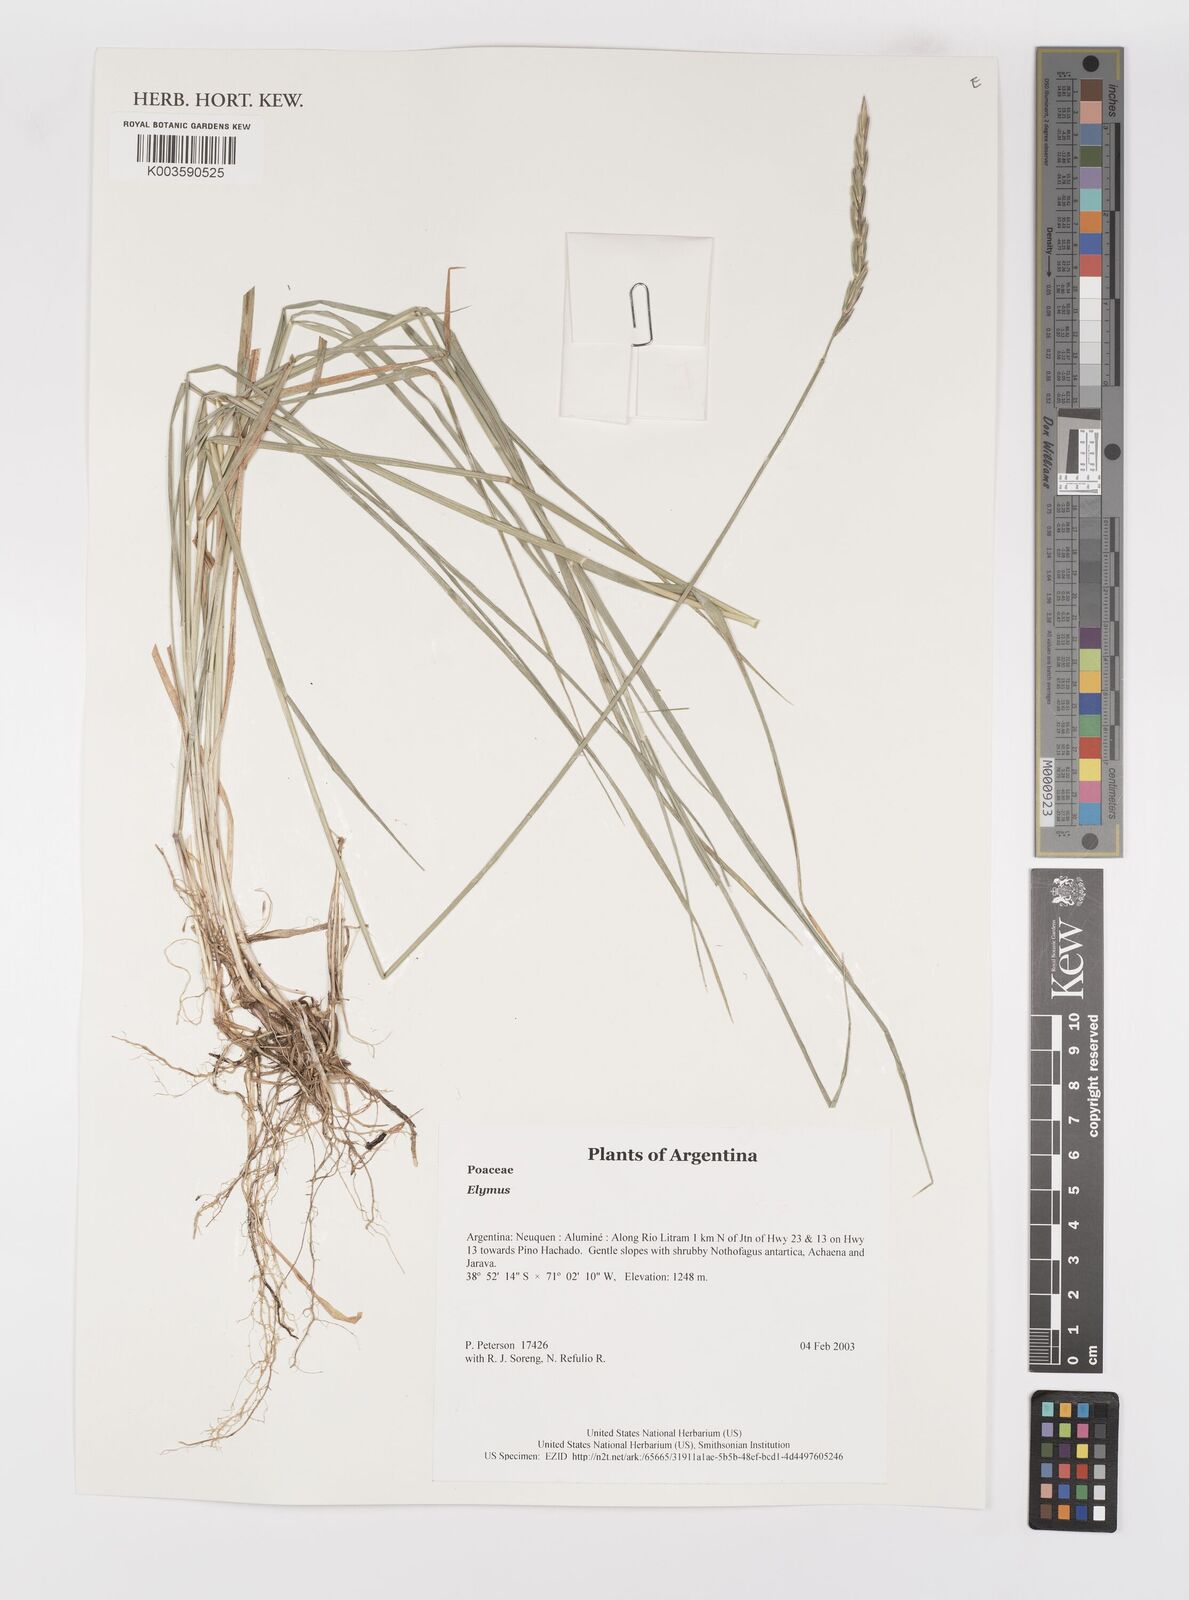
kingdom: Plantae
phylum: Tracheophyta
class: Liliopsida
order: Poales
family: Poaceae
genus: Elymus
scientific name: Elymus
